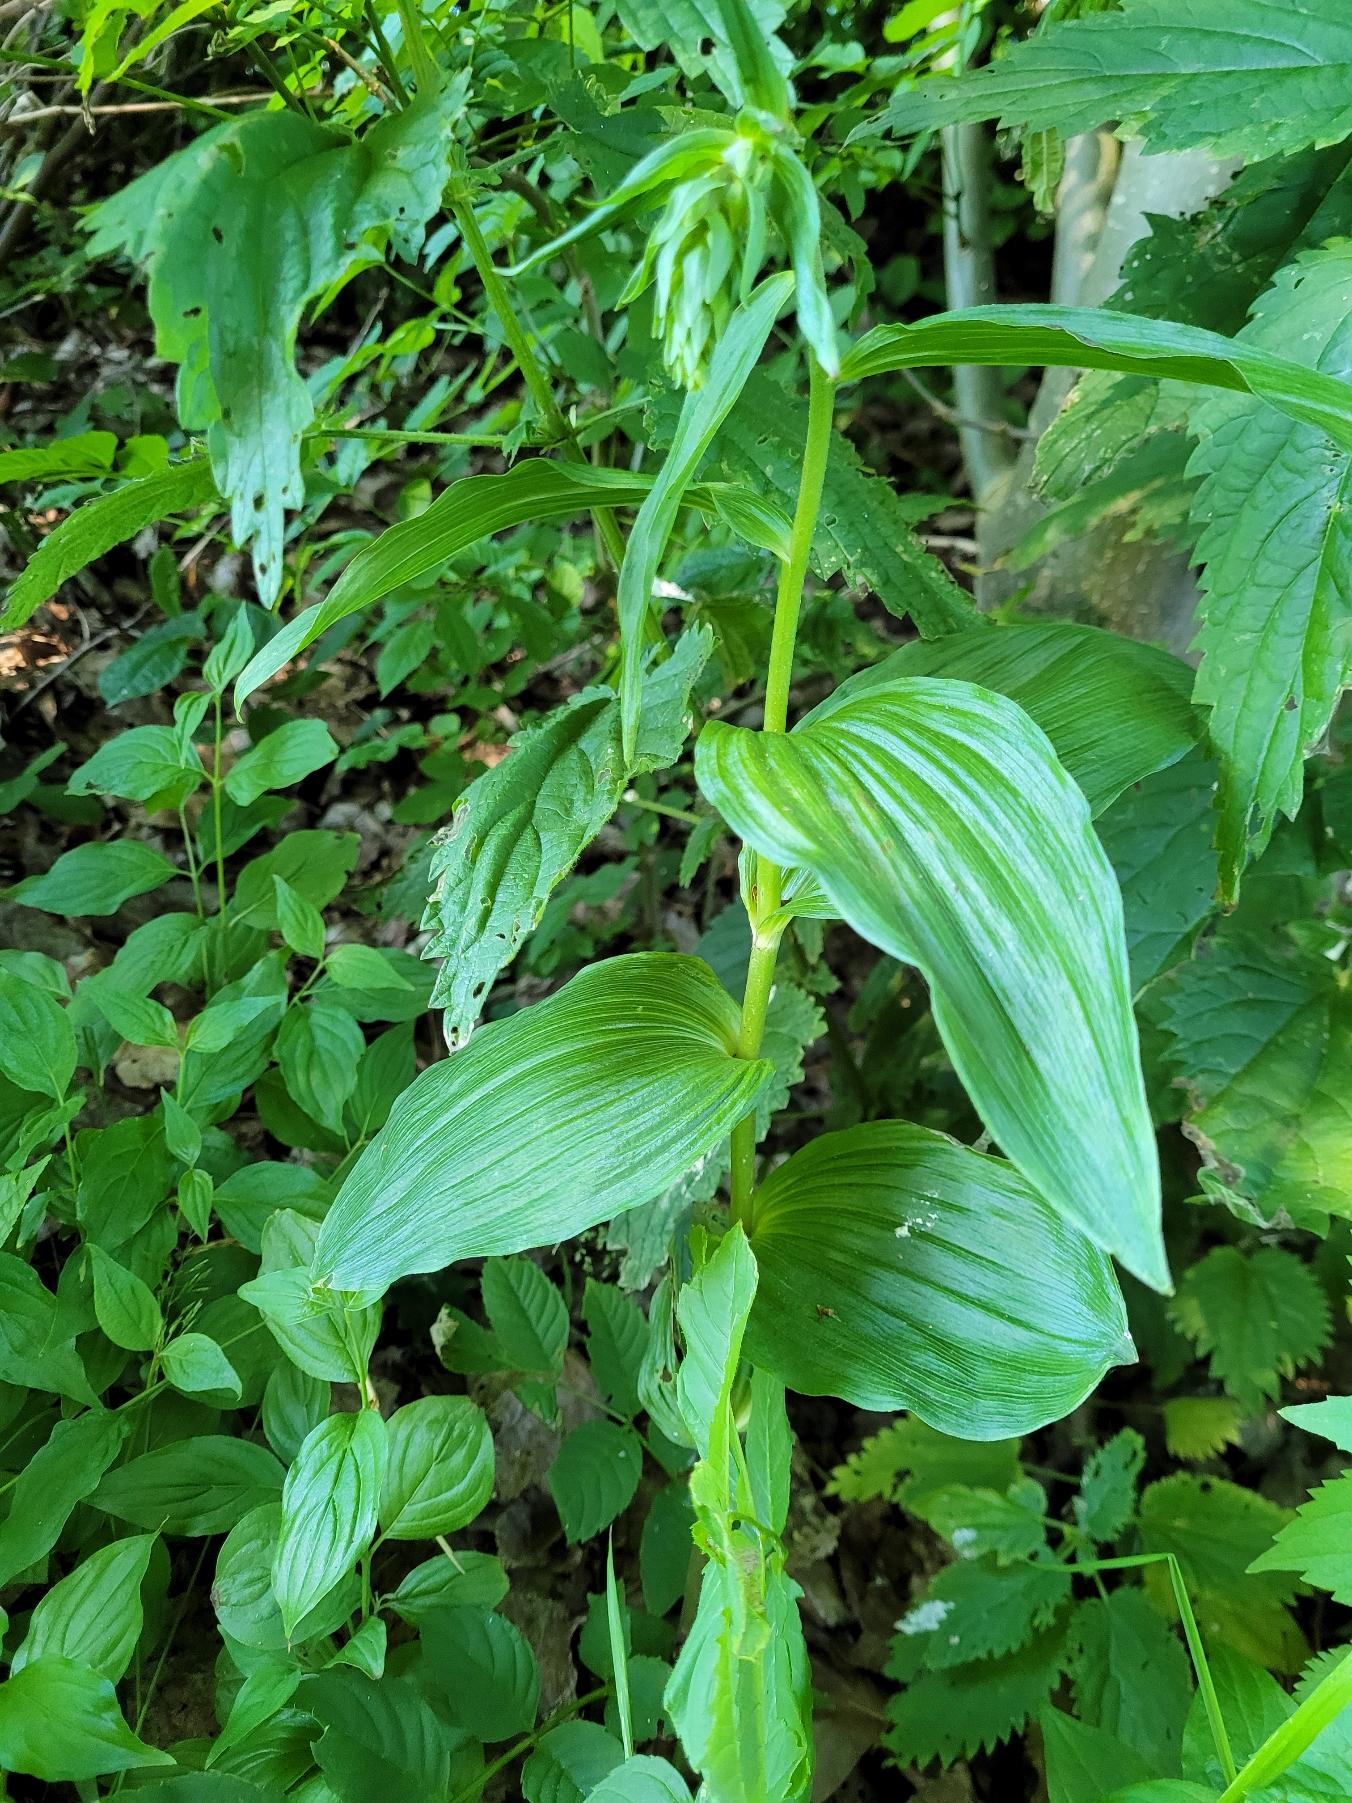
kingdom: Plantae
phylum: Tracheophyta
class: Liliopsida
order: Asparagales
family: Orchidaceae
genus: Epipactis
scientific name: Epipactis helleborine
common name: Skov-hullæbe
